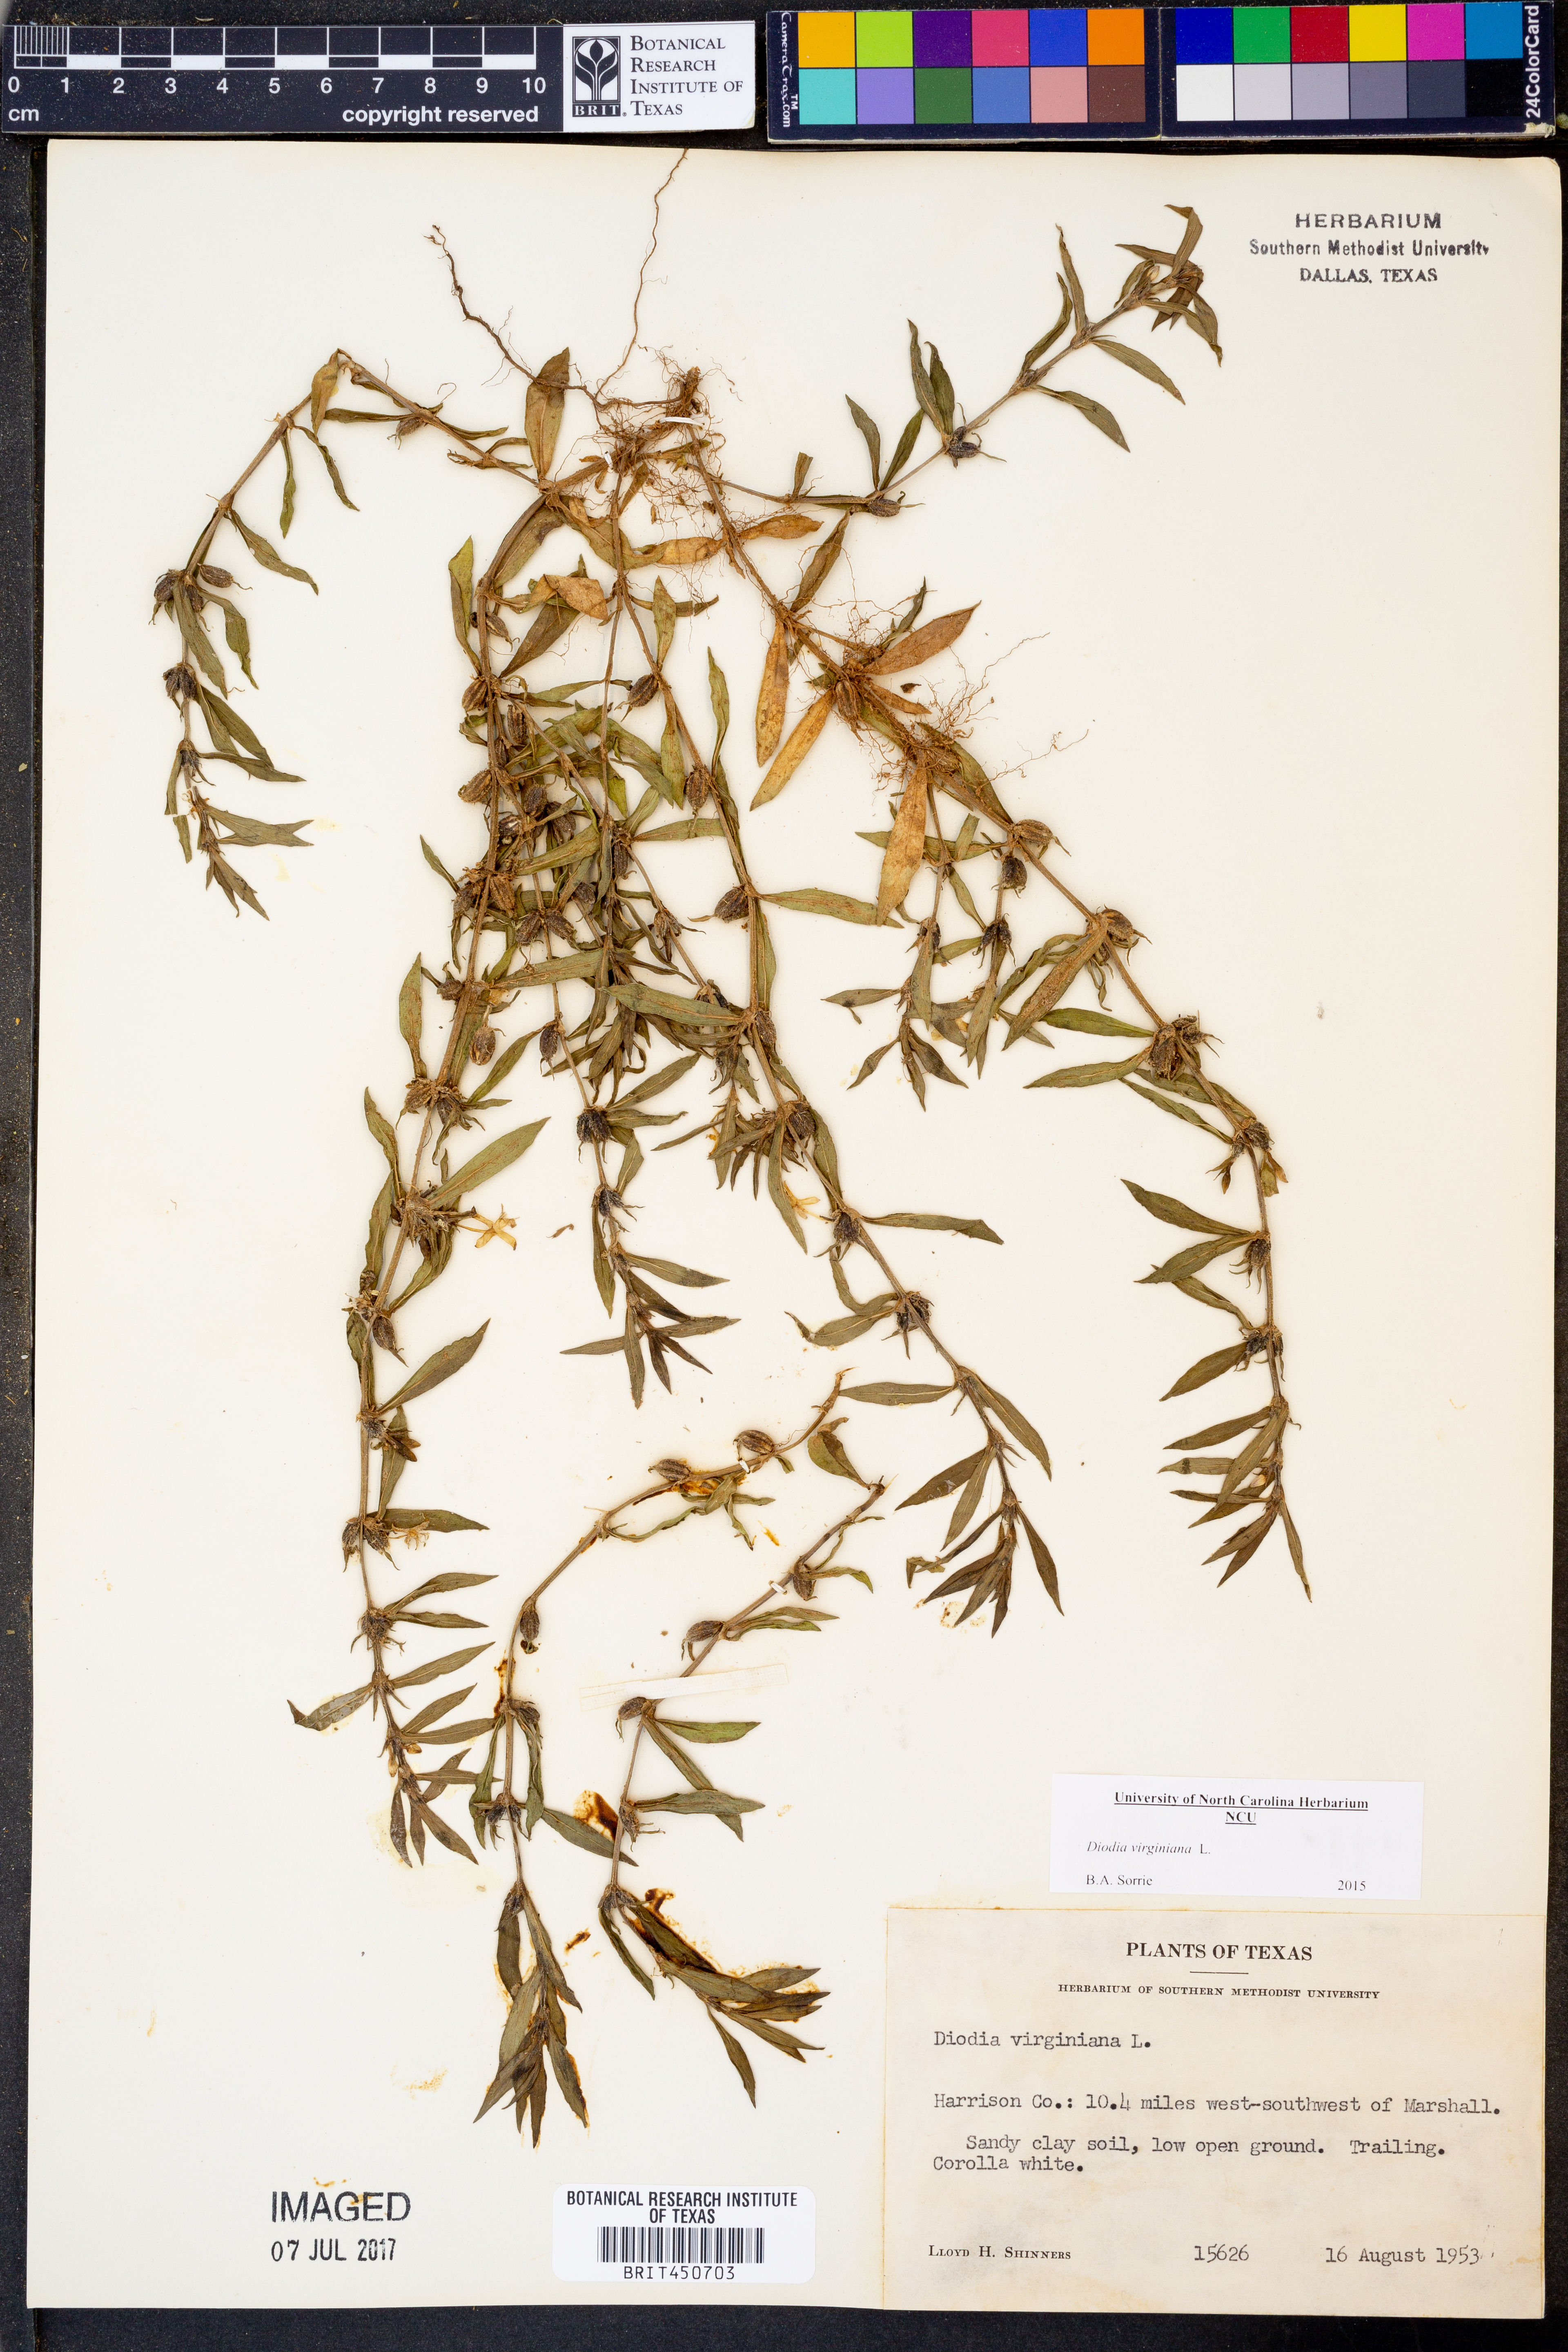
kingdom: Plantae
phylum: Tracheophyta
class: Magnoliopsida
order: Gentianales
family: Rubiaceae
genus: Diodia
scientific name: Diodia virginiana
